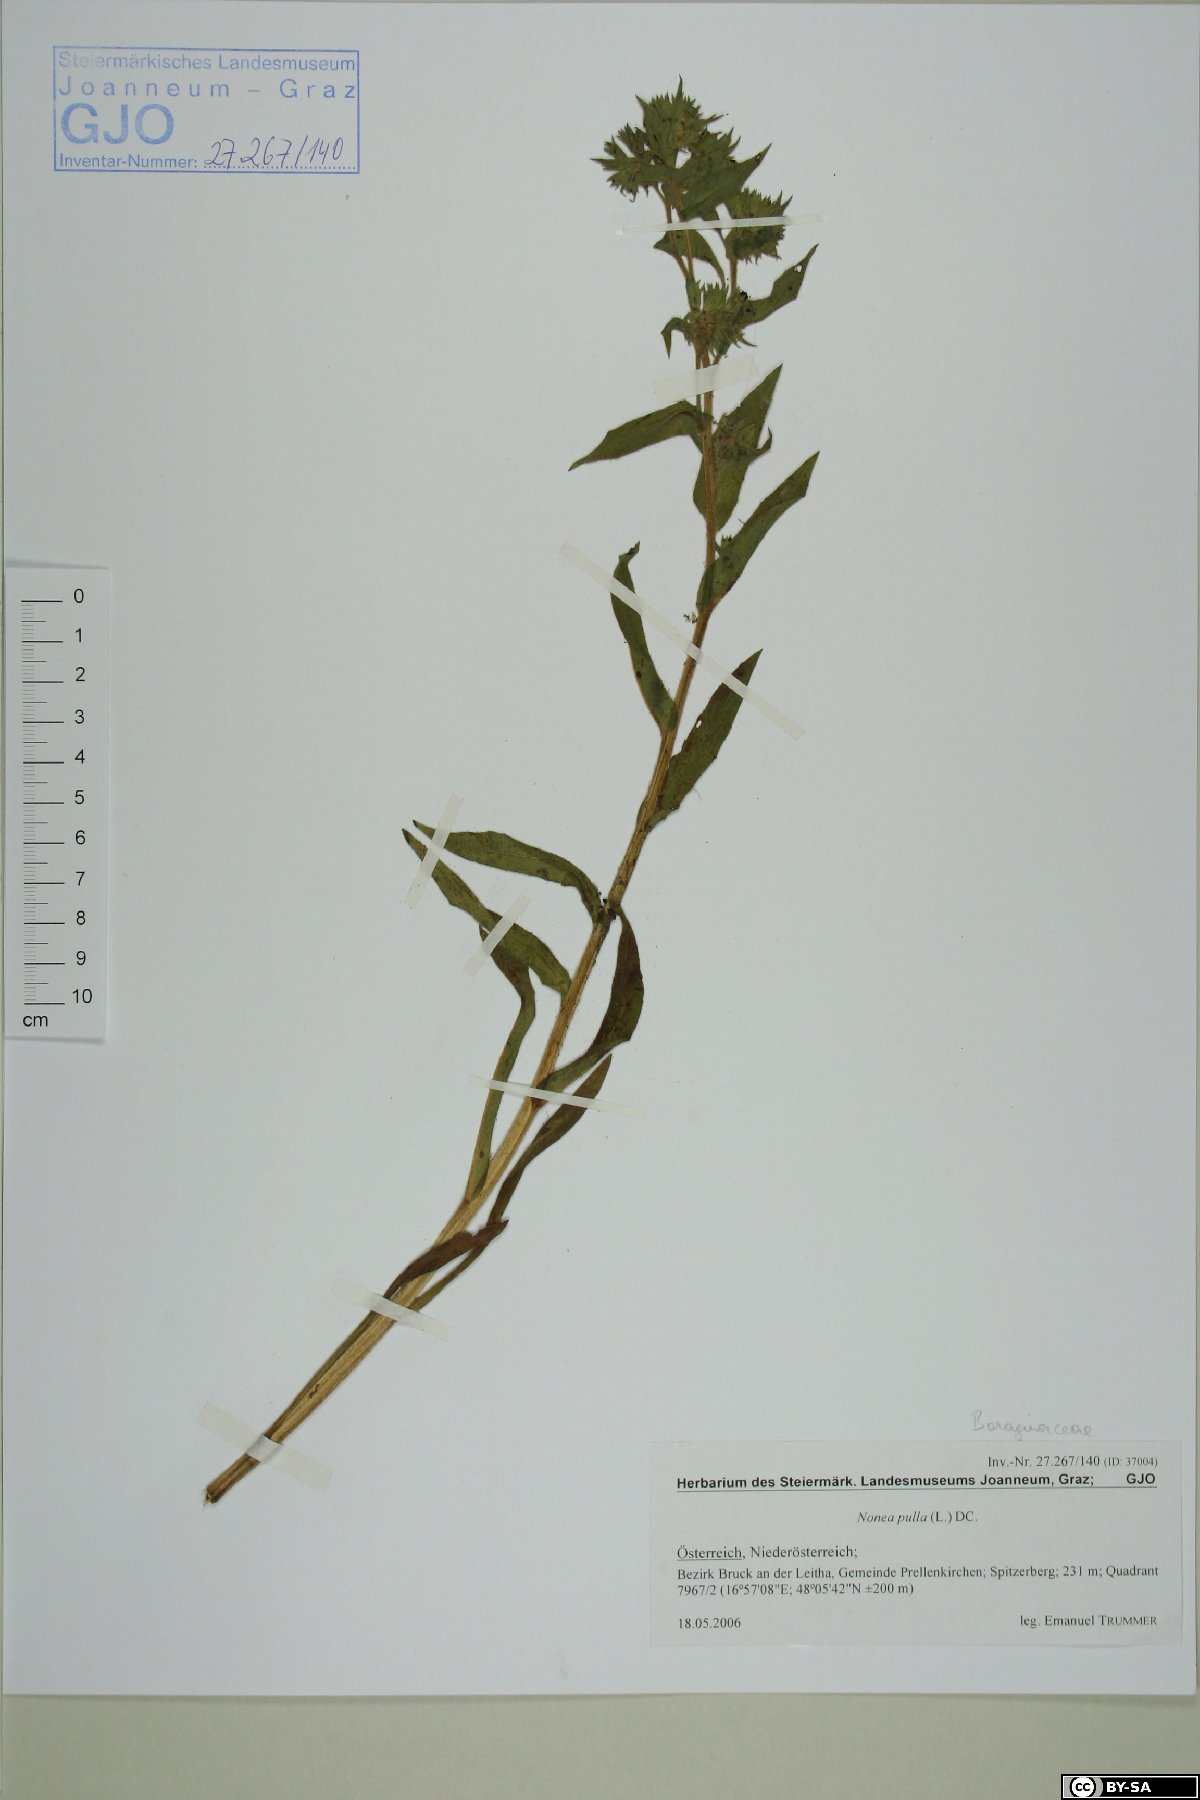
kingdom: Plantae
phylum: Tracheophyta
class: Magnoliopsida
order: Boraginales
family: Boraginaceae
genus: Nonea
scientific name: Nonea pulla
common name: Brown nonea
